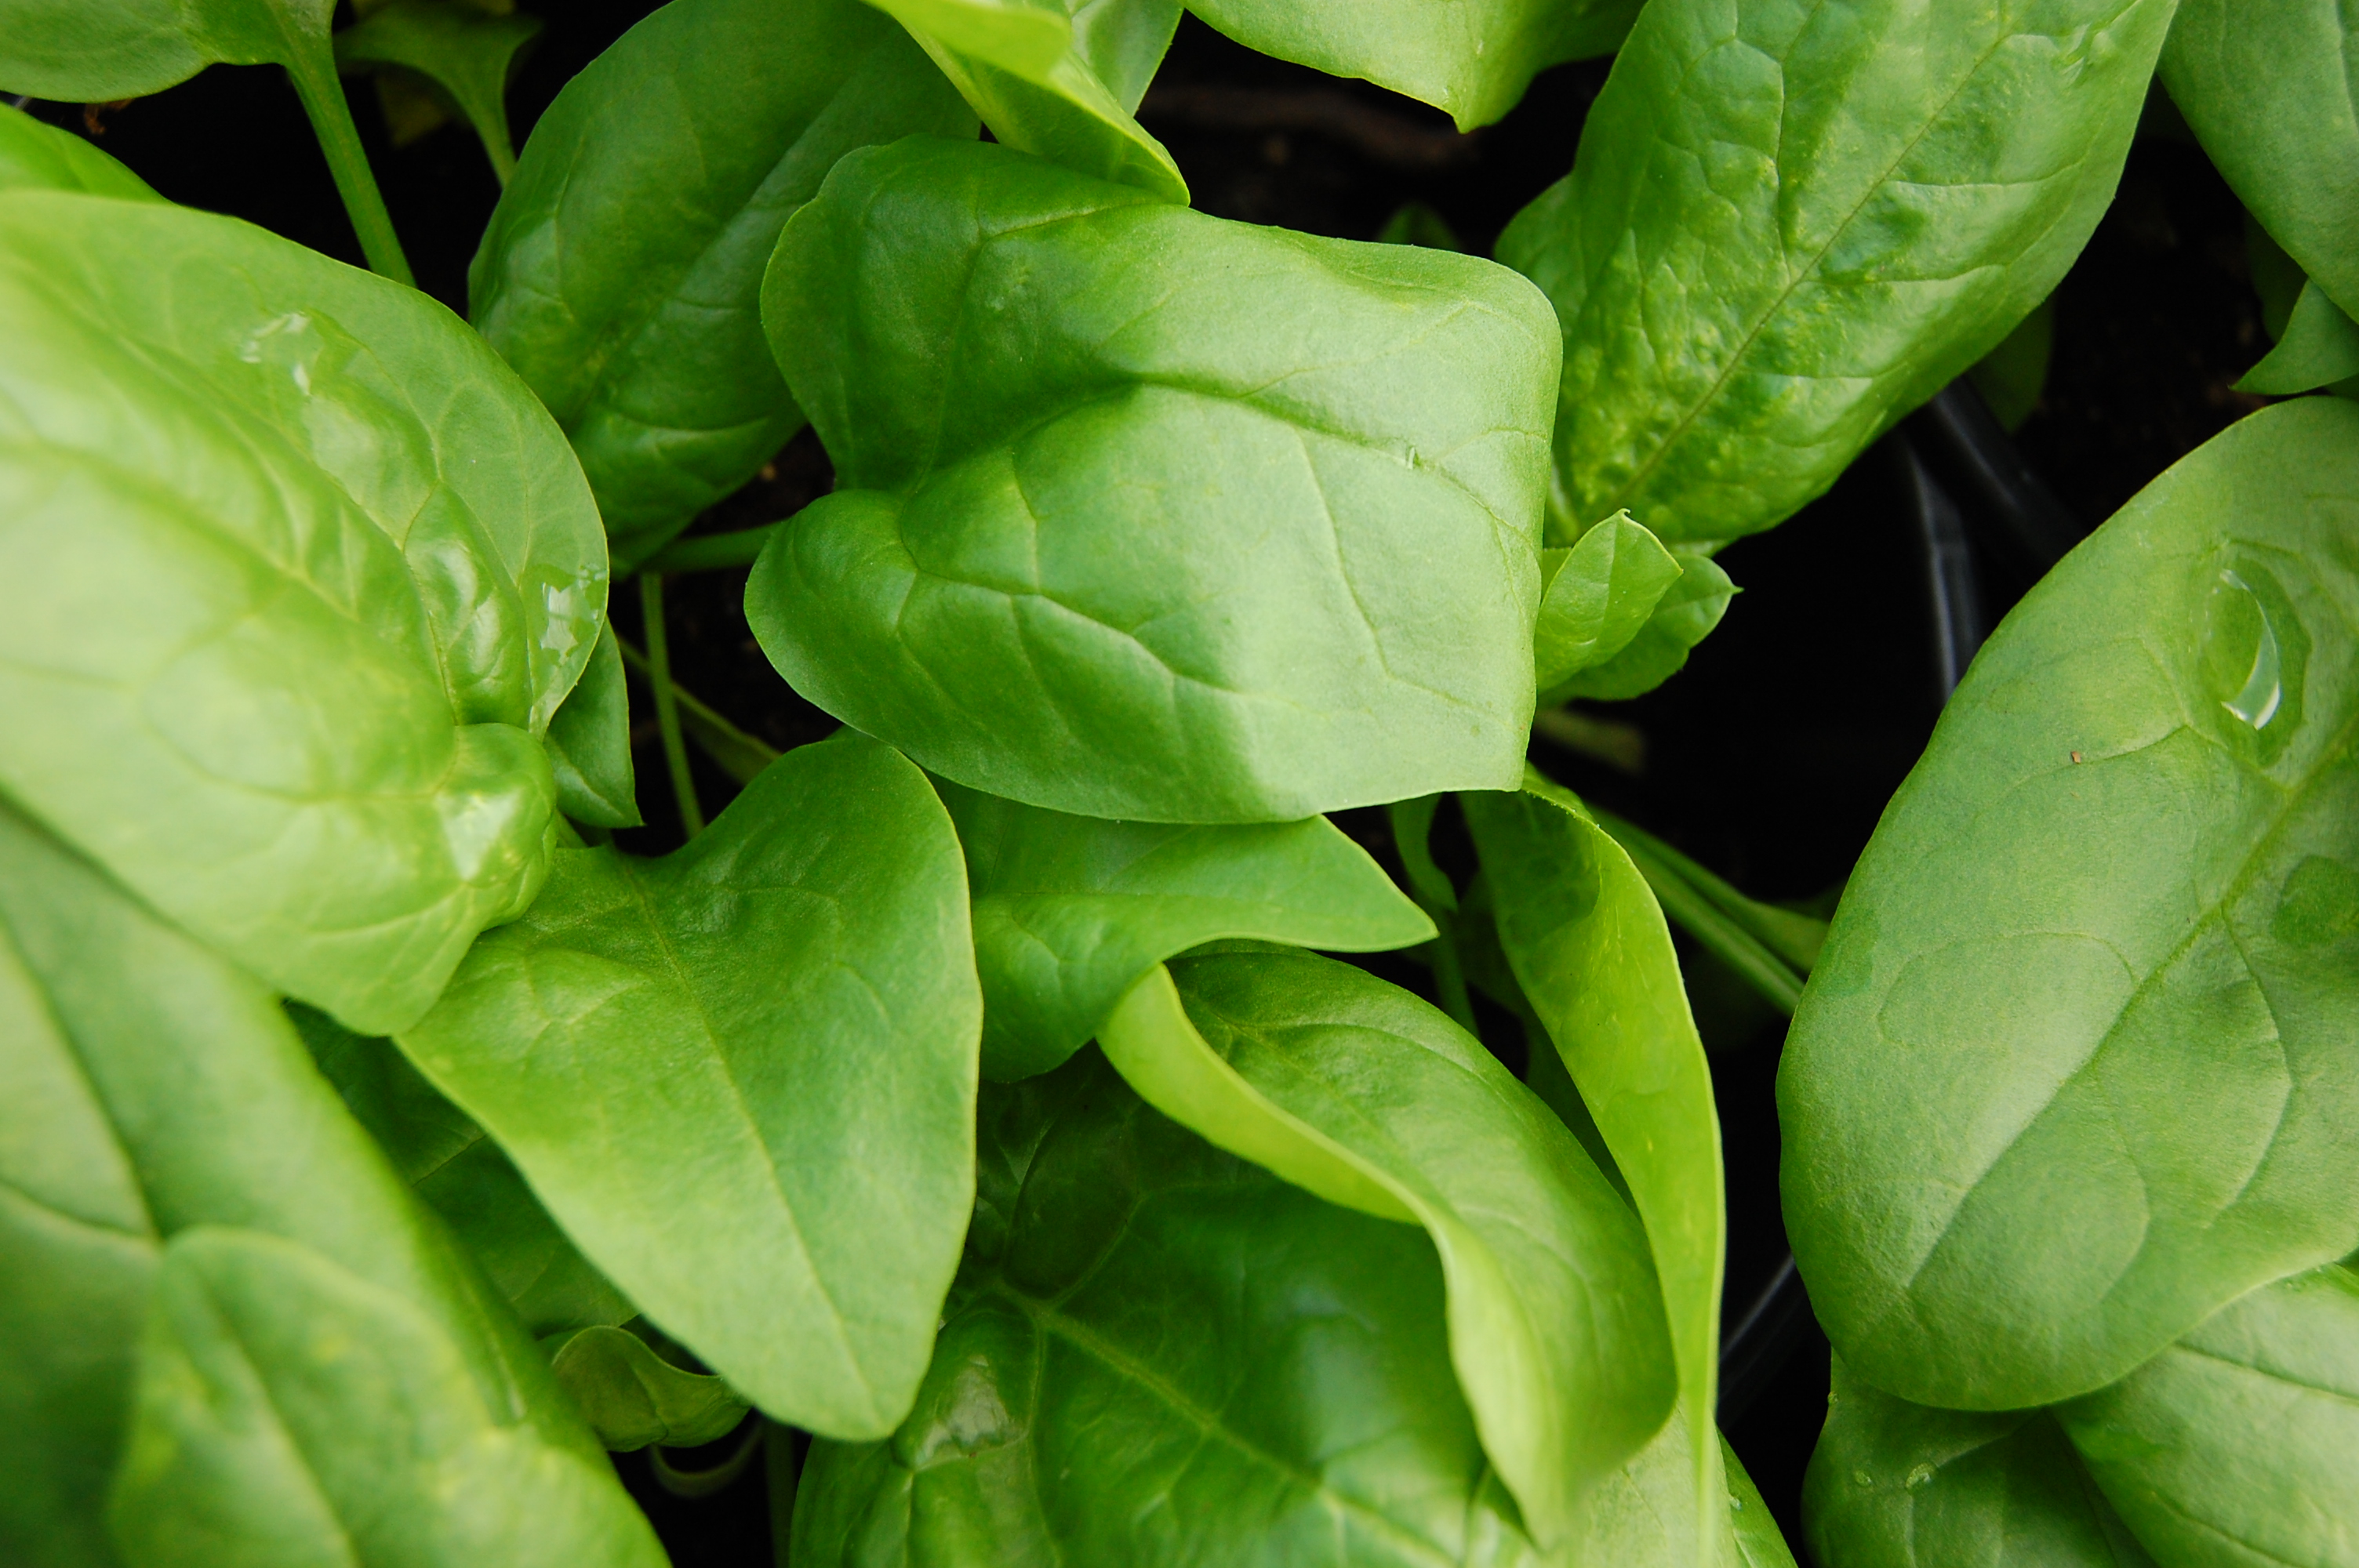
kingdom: Plantae
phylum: Tracheophyta
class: Magnoliopsida
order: Caryophyllales
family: Amaranthaceae
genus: Spinacia
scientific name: Spinacia oleracea
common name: Spinach
